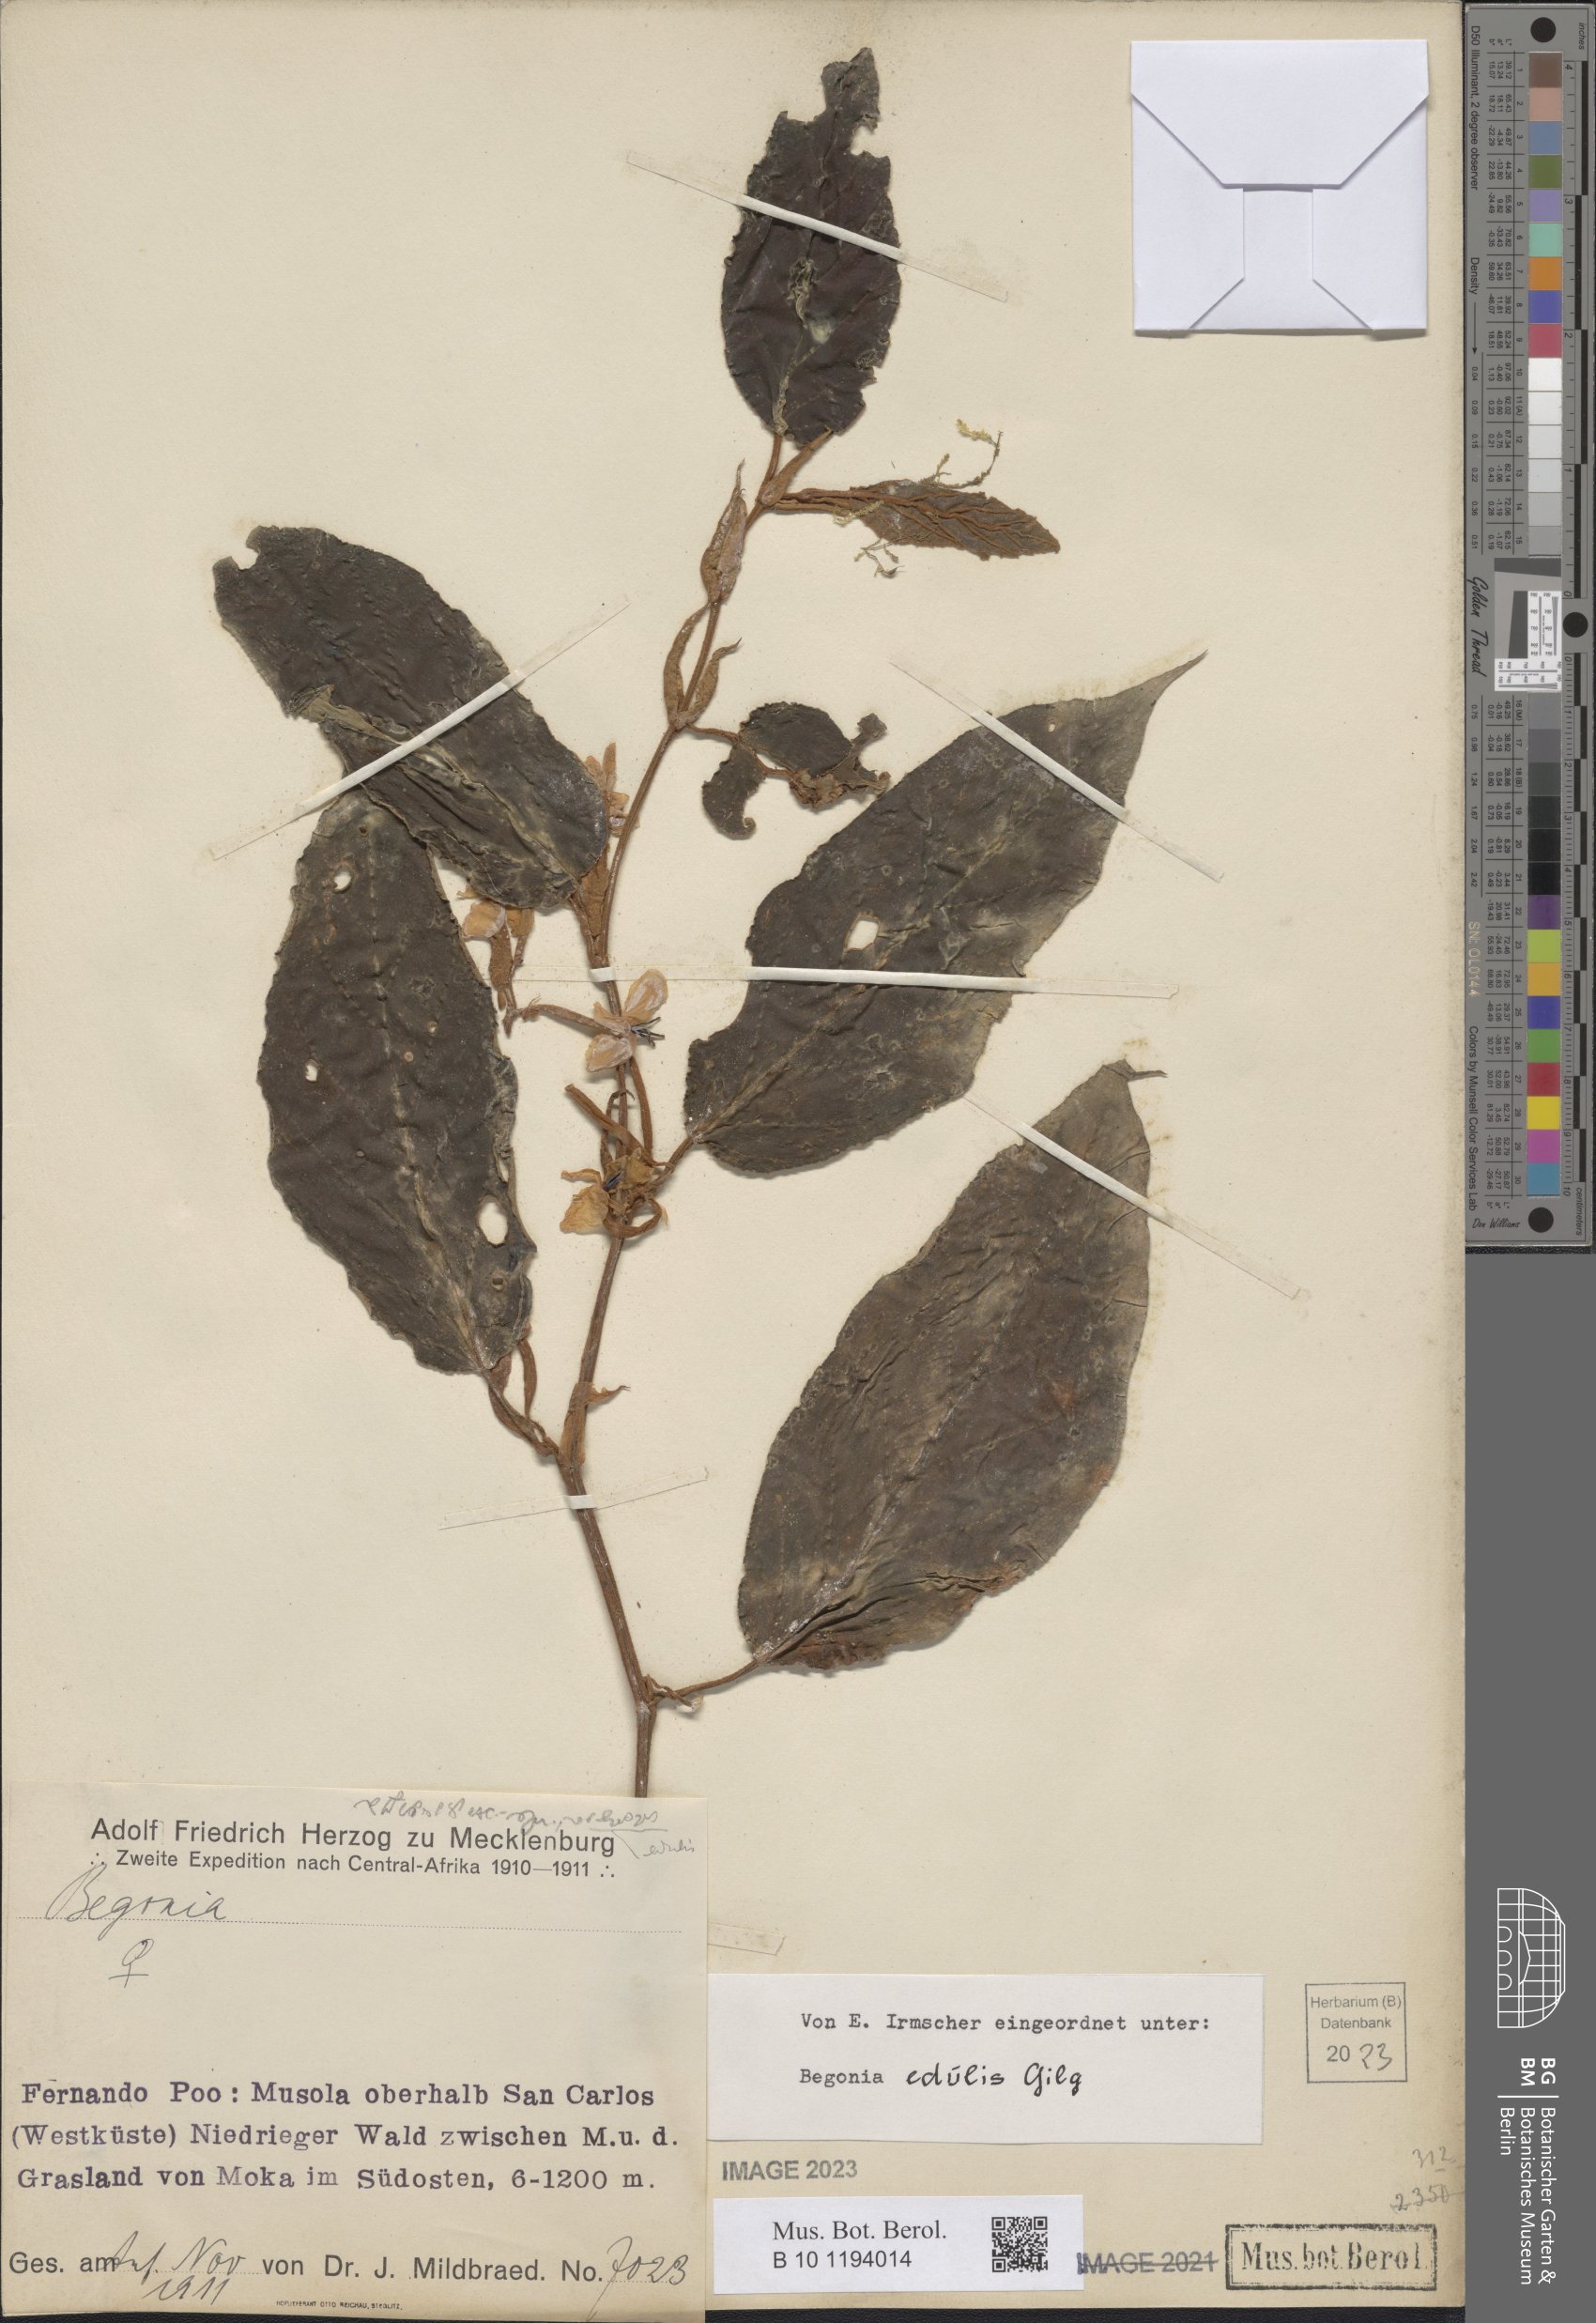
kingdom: Plantae
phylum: Tracheophyta
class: Magnoliopsida
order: Cucurbitales
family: Begoniaceae
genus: Begonia
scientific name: Begonia mannii
